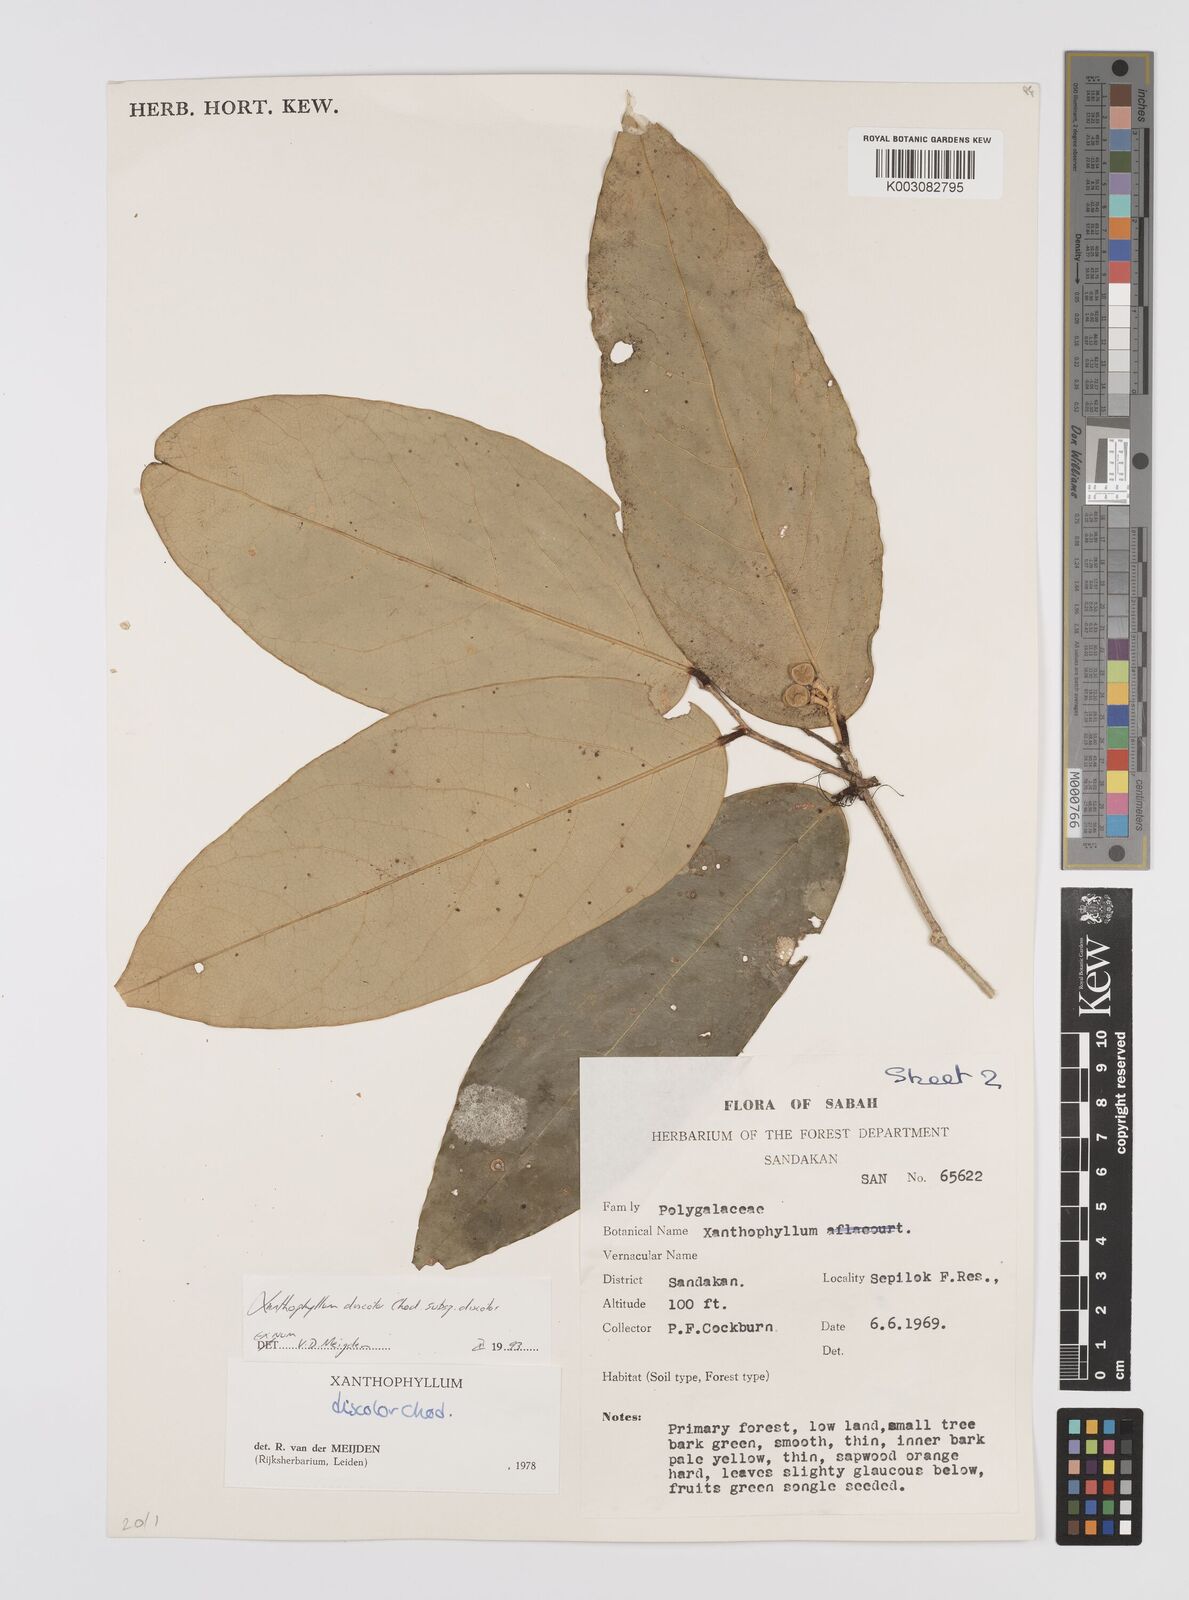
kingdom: Plantae
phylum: Tracheophyta
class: Magnoliopsida
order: Fabales
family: Polygalaceae
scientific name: Polygalaceae
